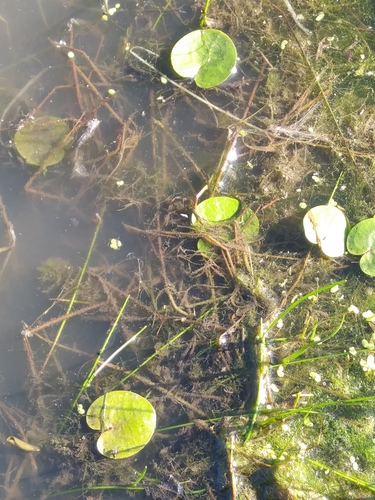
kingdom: Plantae
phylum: Tracheophyta
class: Liliopsida
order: Alismatales
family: Hydrocharitaceae
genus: Hydrocharis
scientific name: Hydrocharis morsus-ranae
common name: European frog-bit
